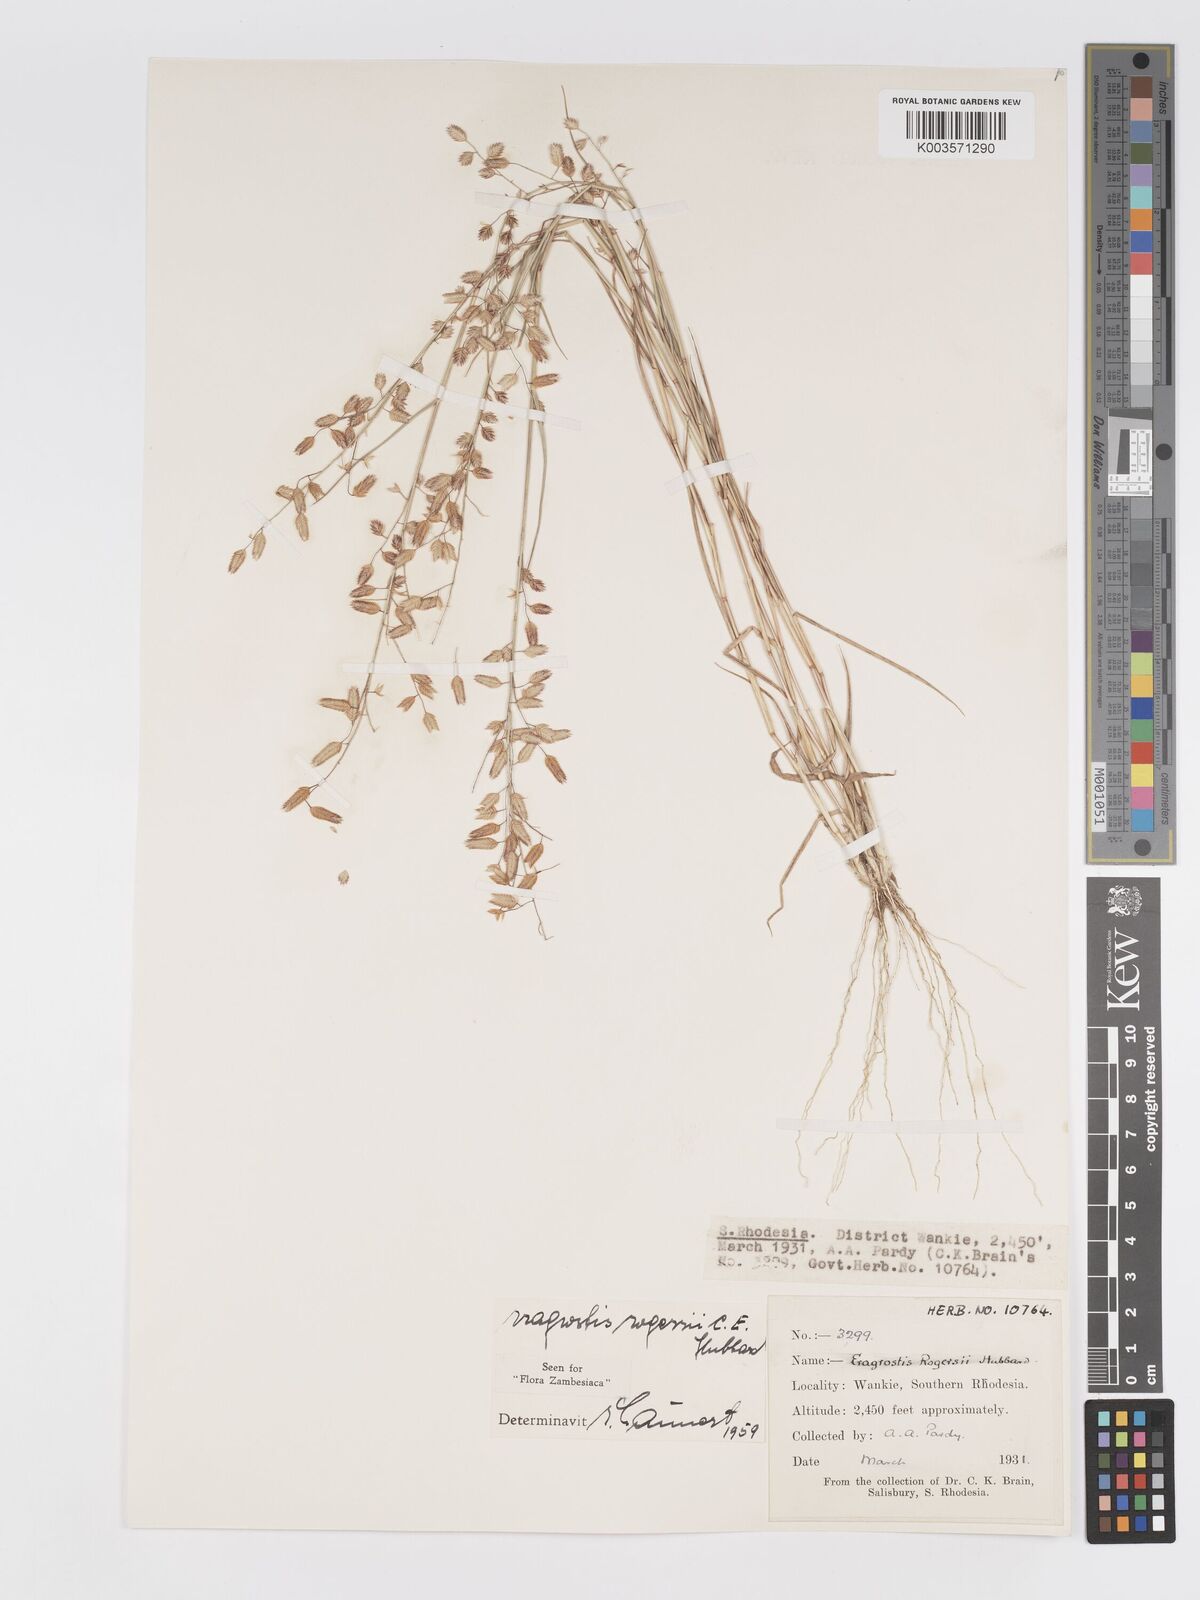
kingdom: Plantae
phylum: Tracheophyta
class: Liliopsida
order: Poales
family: Poaceae
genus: Eragrostis
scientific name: Eragrostis rogersii
